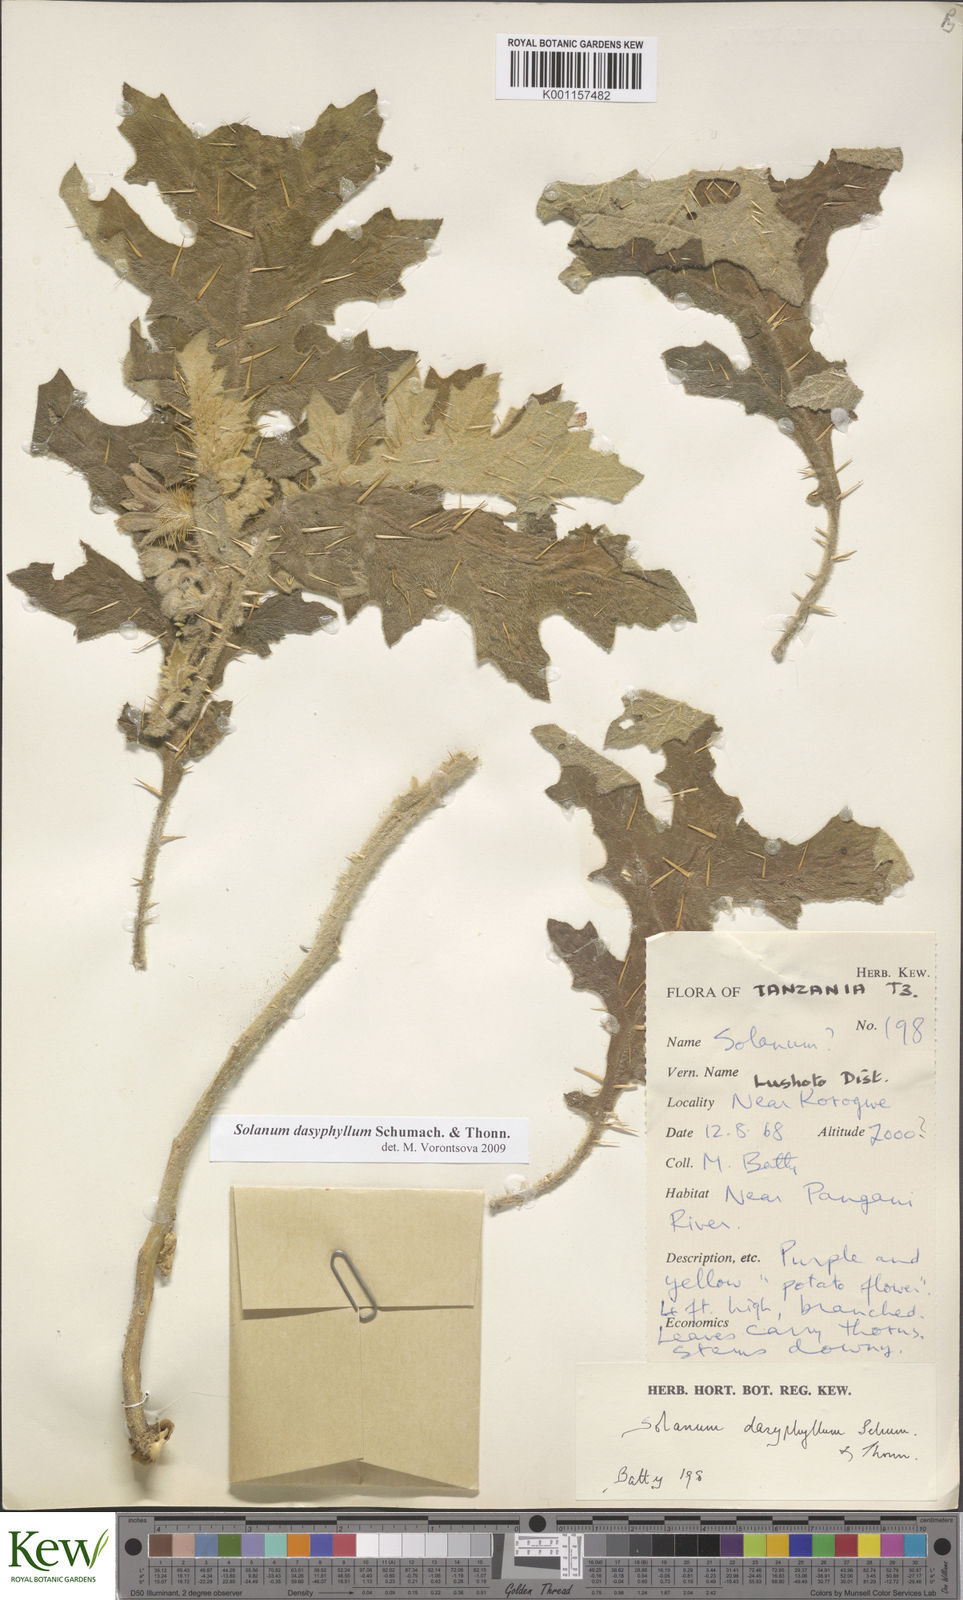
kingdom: Plantae
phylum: Tracheophyta
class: Magnoliopsida
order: Solanales
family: Solanaceae
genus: Solanum
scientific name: Solanum dasyphyllum
